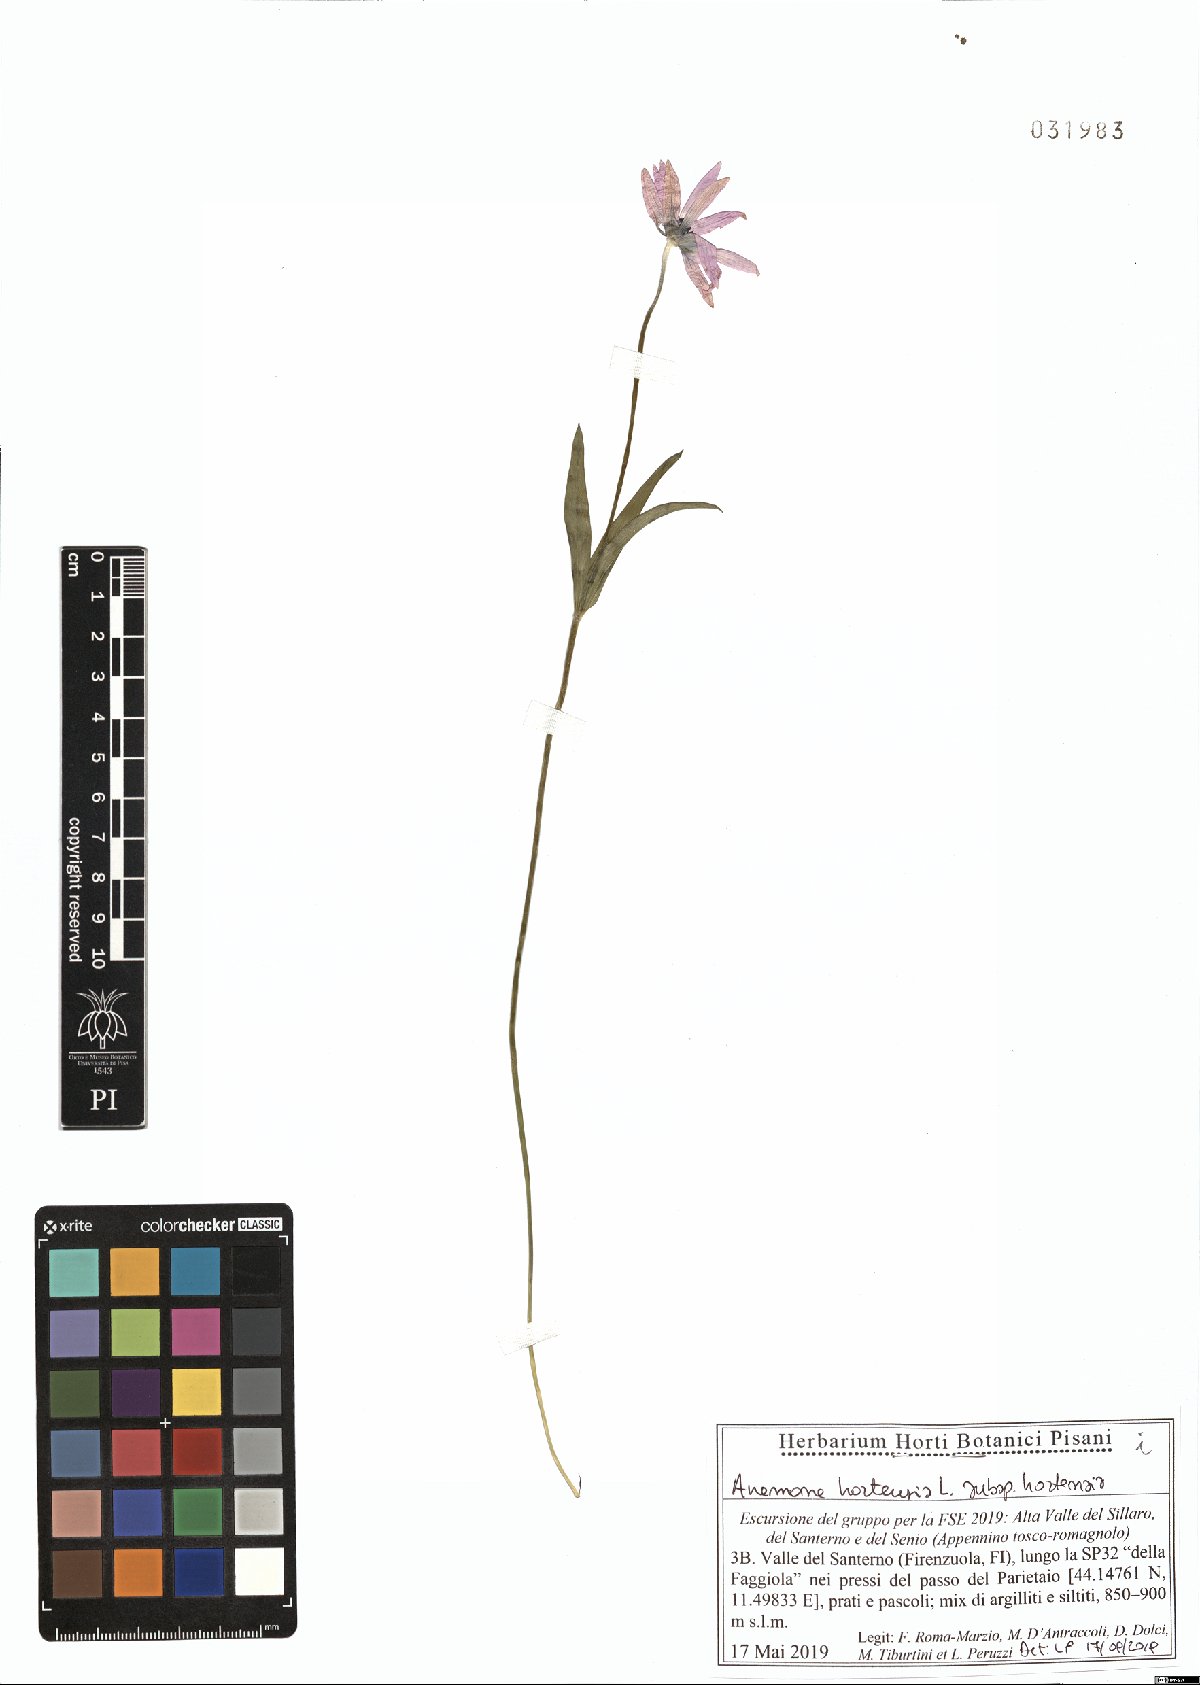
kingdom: Plantae
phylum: Tracheophyta
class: Magnoliopsida
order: Ranunculales
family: Ranunculaceae
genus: Anemone
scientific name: Anemone hortensis
